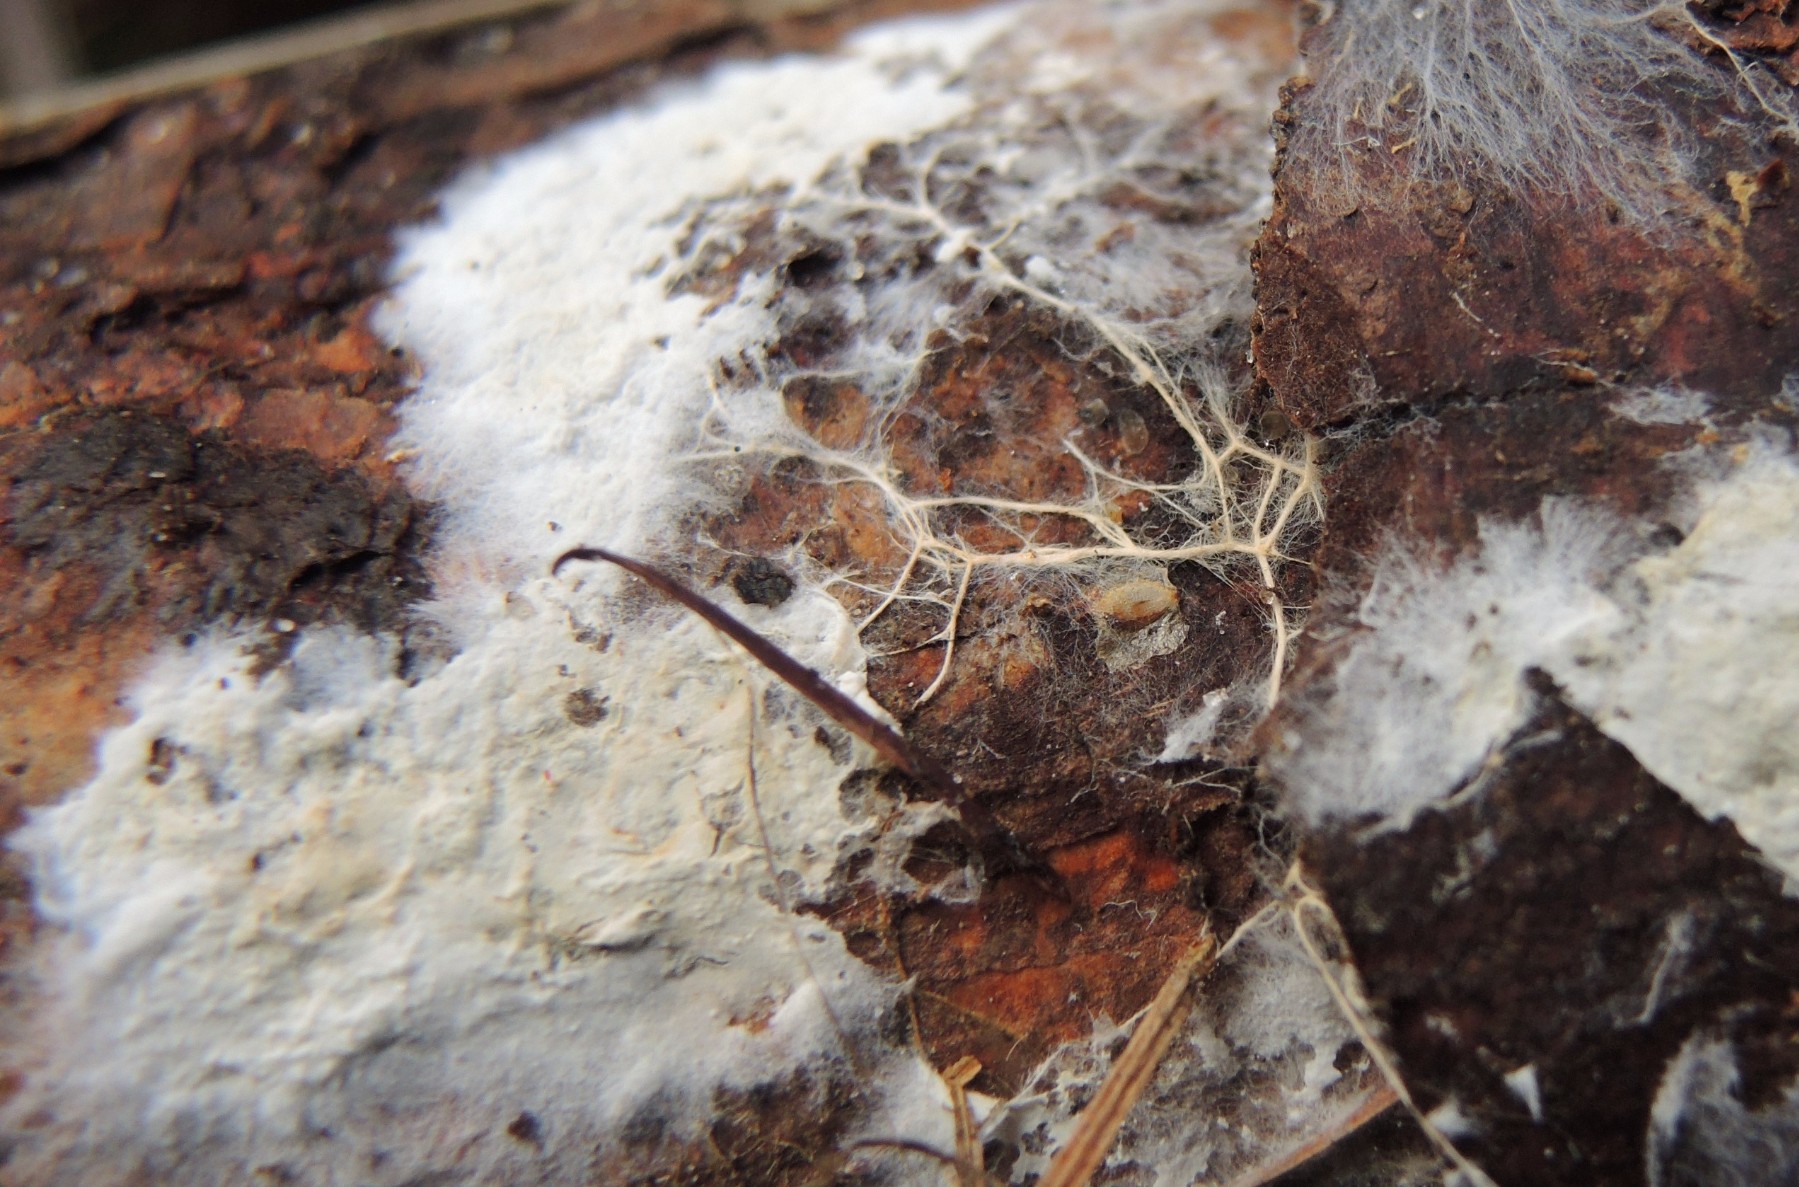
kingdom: Fungi
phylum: Basidiomycota
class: Agaricomycetes
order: Atheliales
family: Atheliaceae
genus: Leptosporomyces
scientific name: Leptosporomyces fuscostratus
